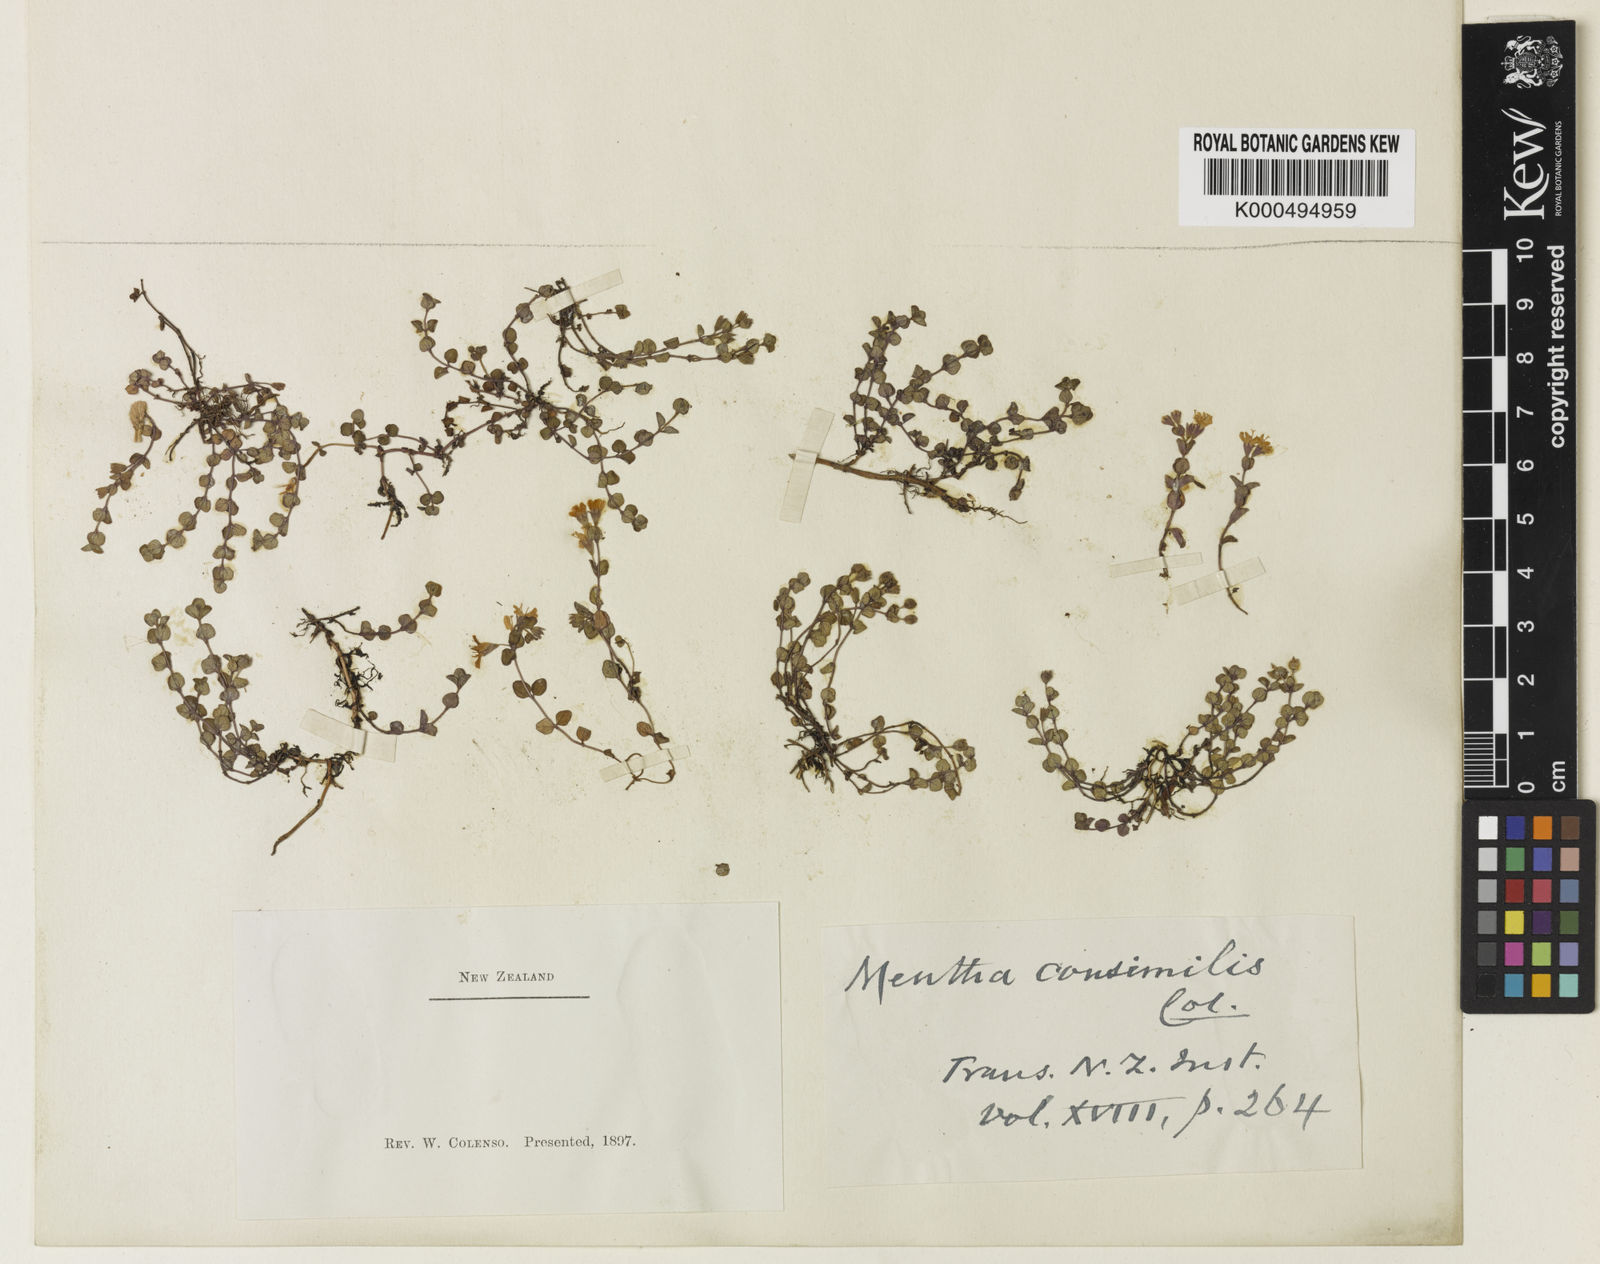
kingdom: Plantae
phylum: Tracheophyta
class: Magnoliopsida
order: Lamiales
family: Lamiaceae
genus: Mentha
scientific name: Mentha cunninghamii
